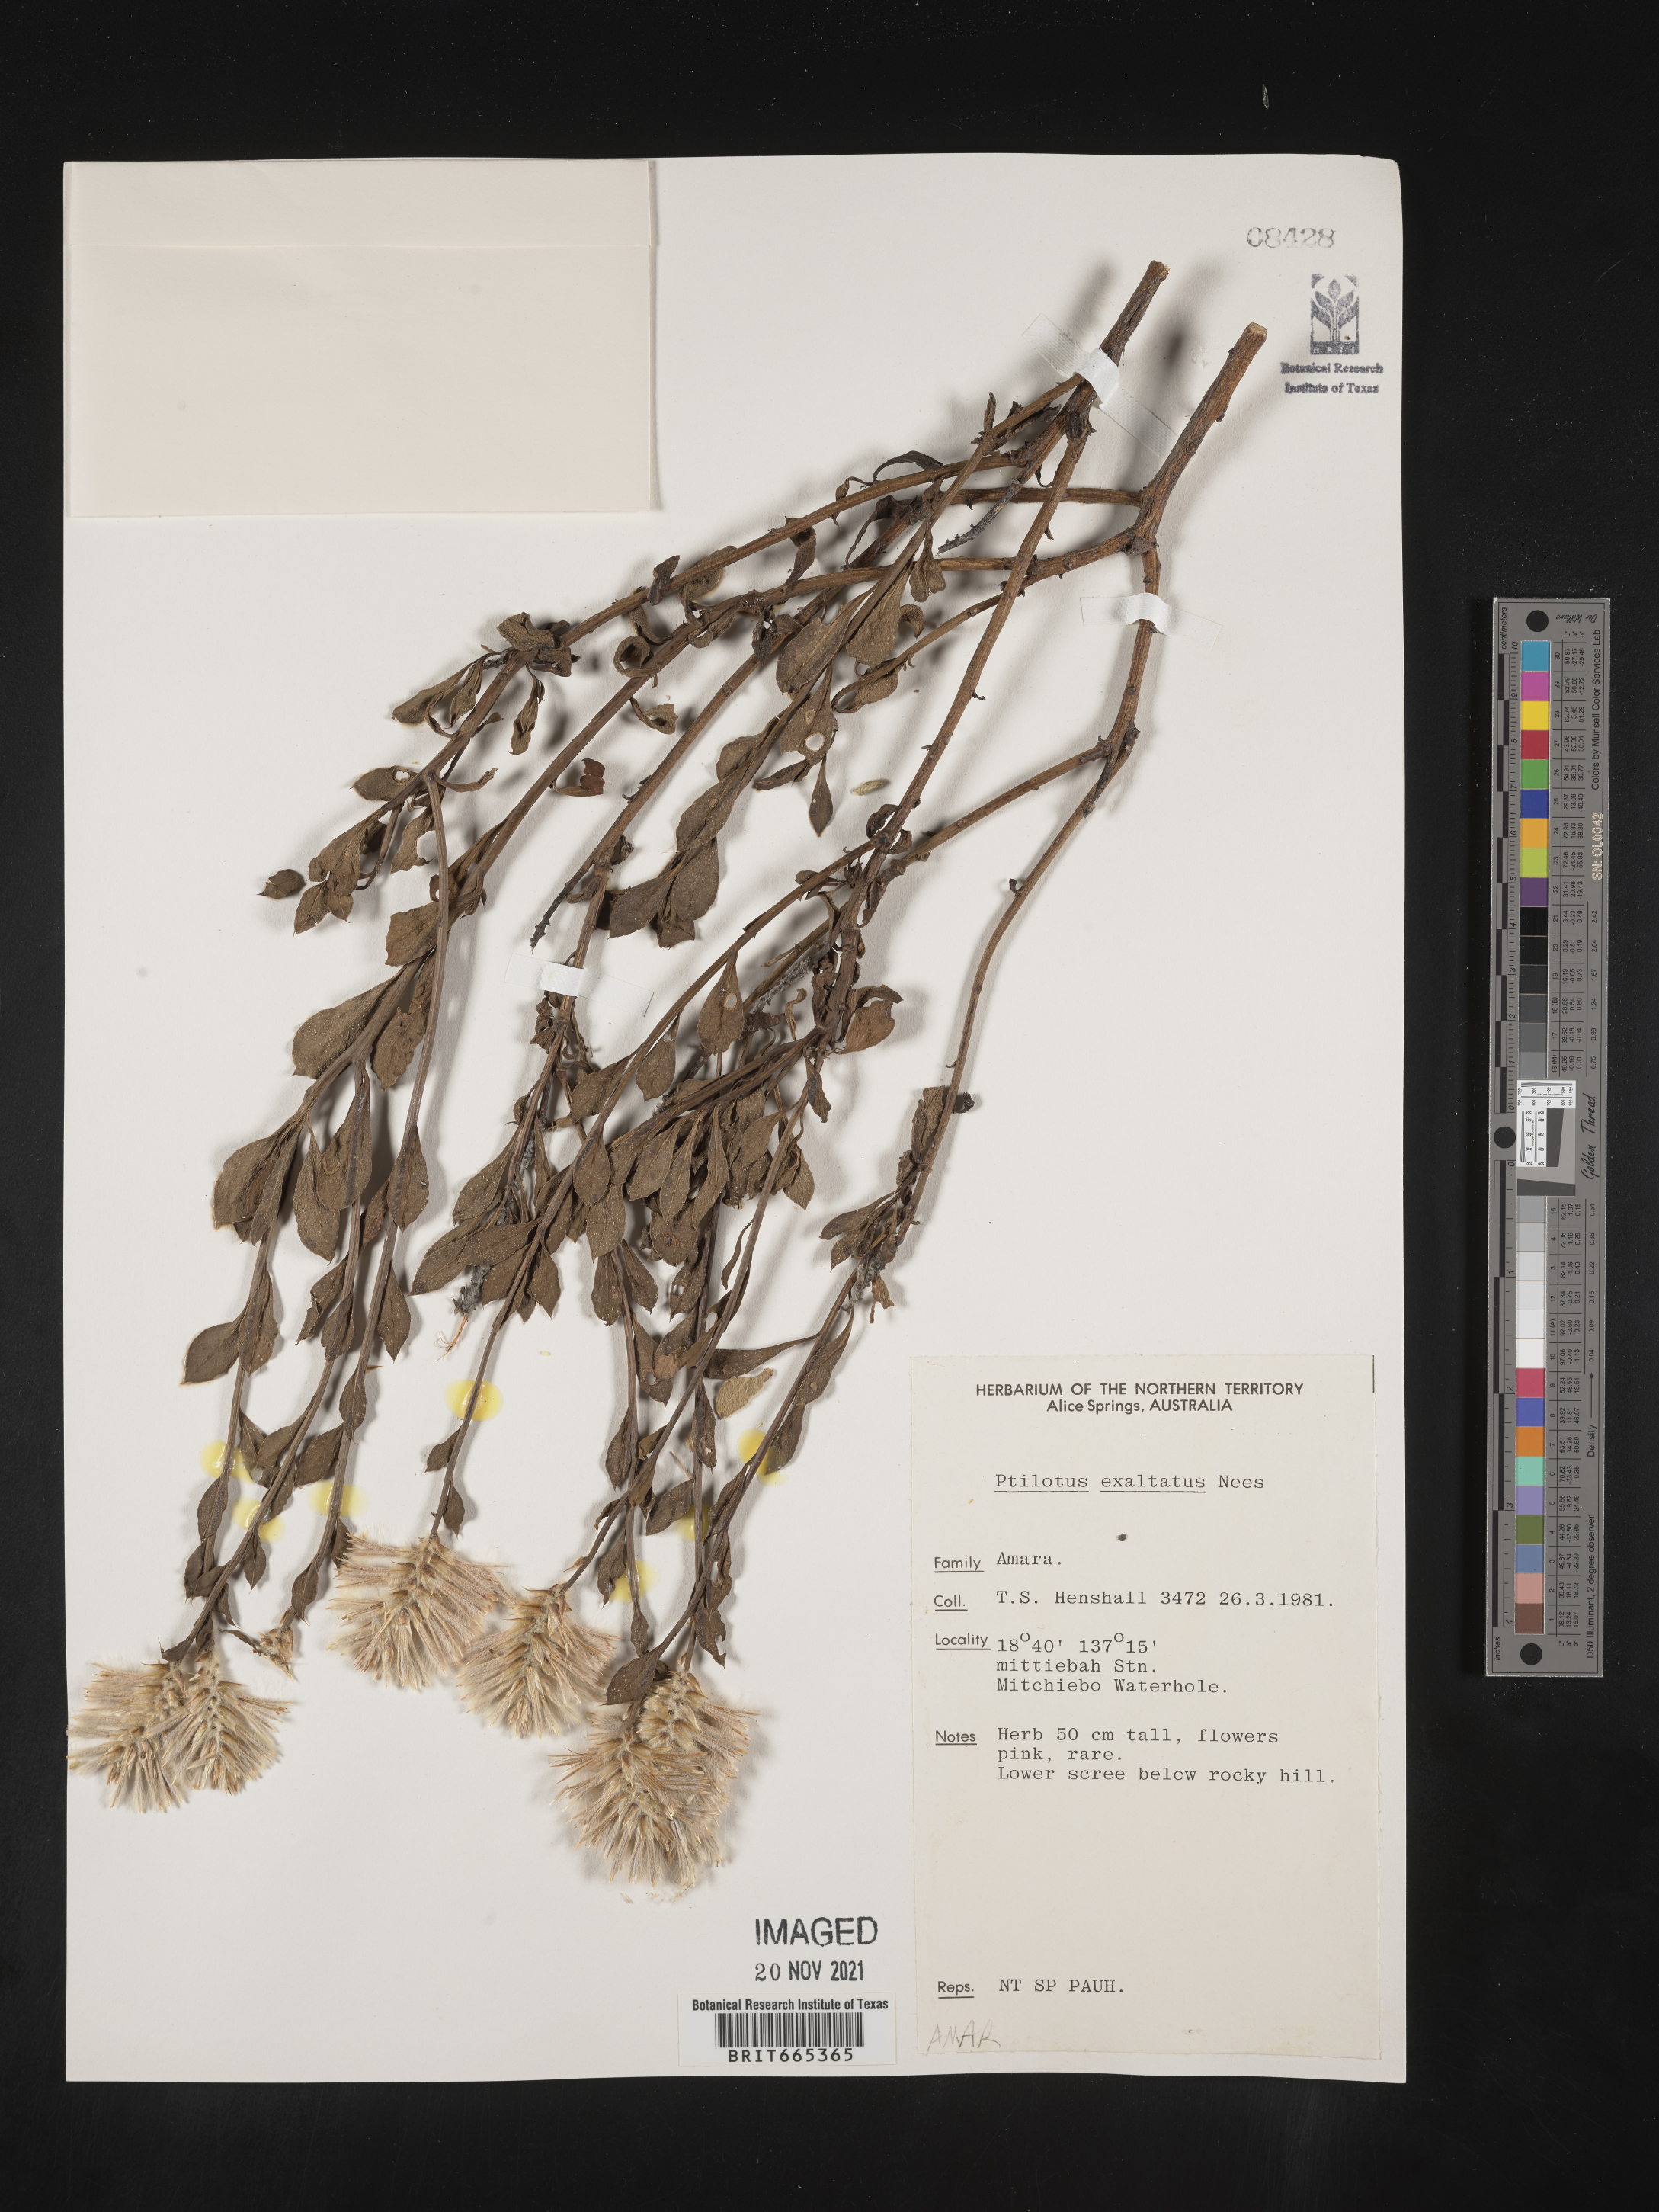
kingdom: Plantae
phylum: Tracheophyta
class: Magnoliopsida
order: Caryophyllales
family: Amaranthaceae
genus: Ptilotus
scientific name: Ptilotus
